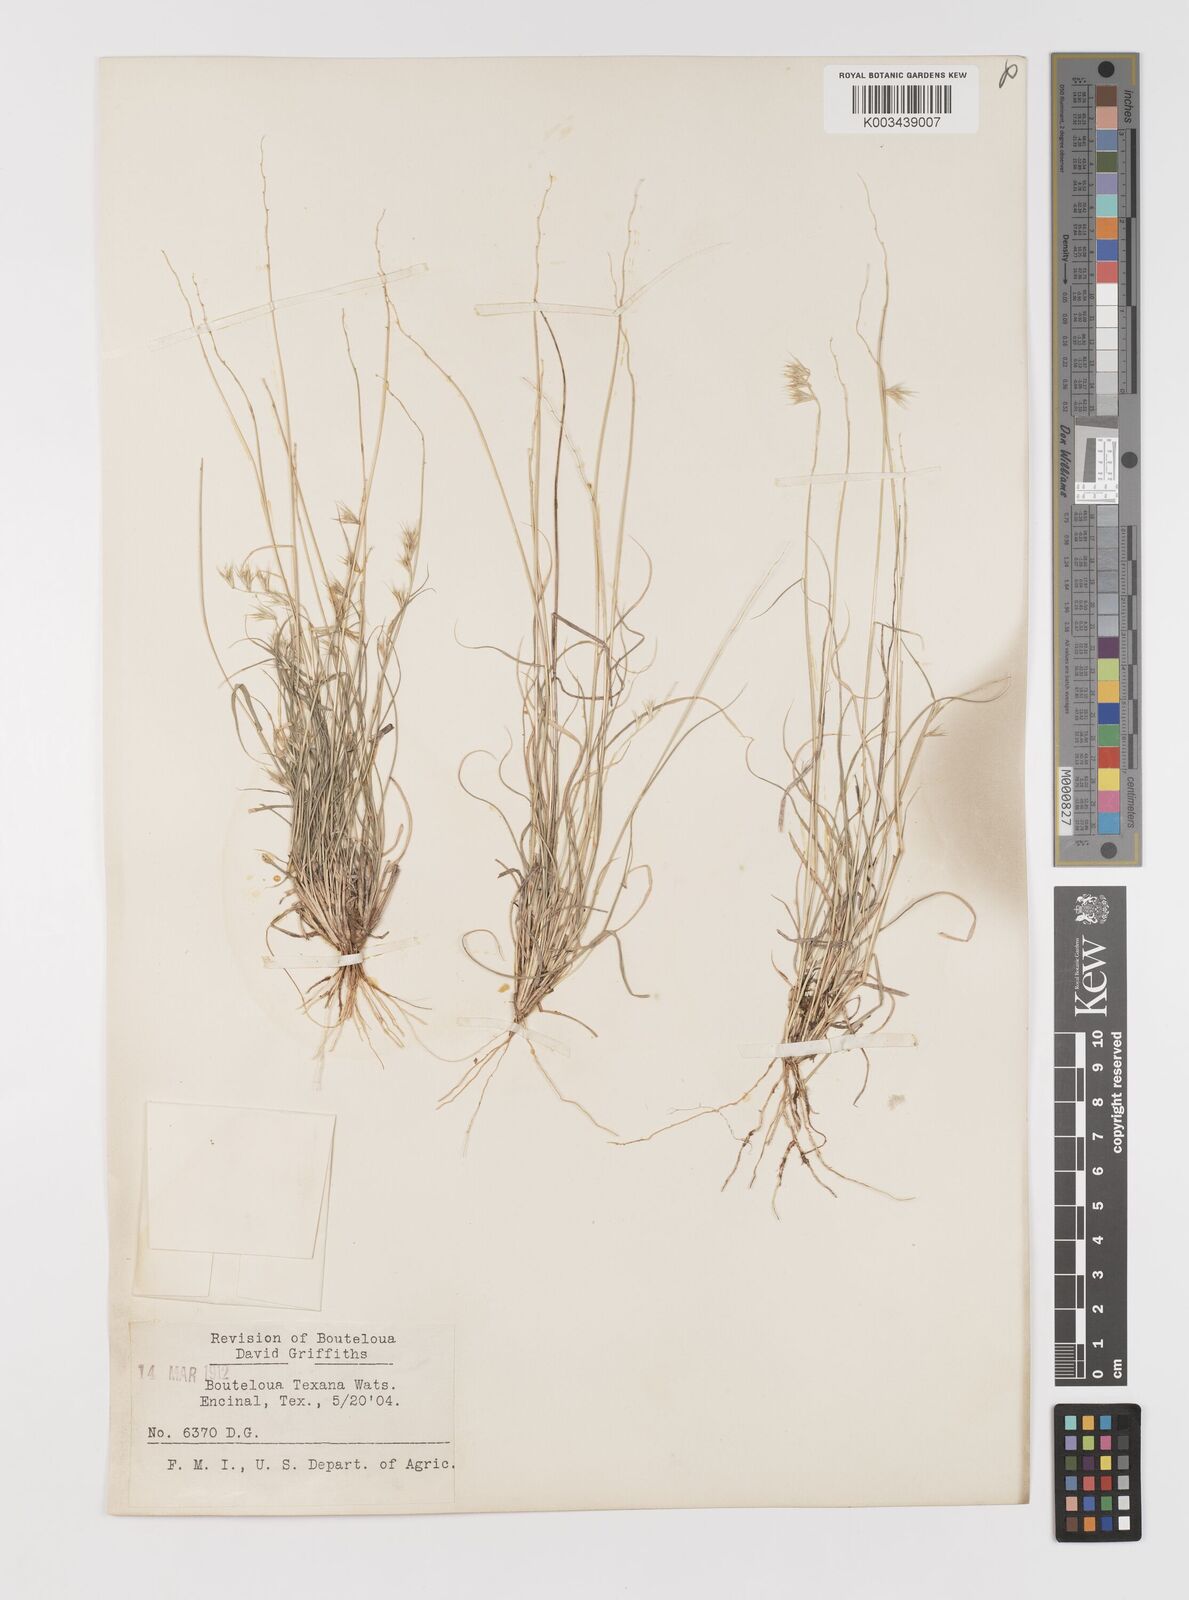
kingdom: Plantae
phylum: Tracheophyta
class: Liliopsida
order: Poales
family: Poaceae
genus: Bouteloua
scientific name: Bouteloua rigidiseta
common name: Texas grama
